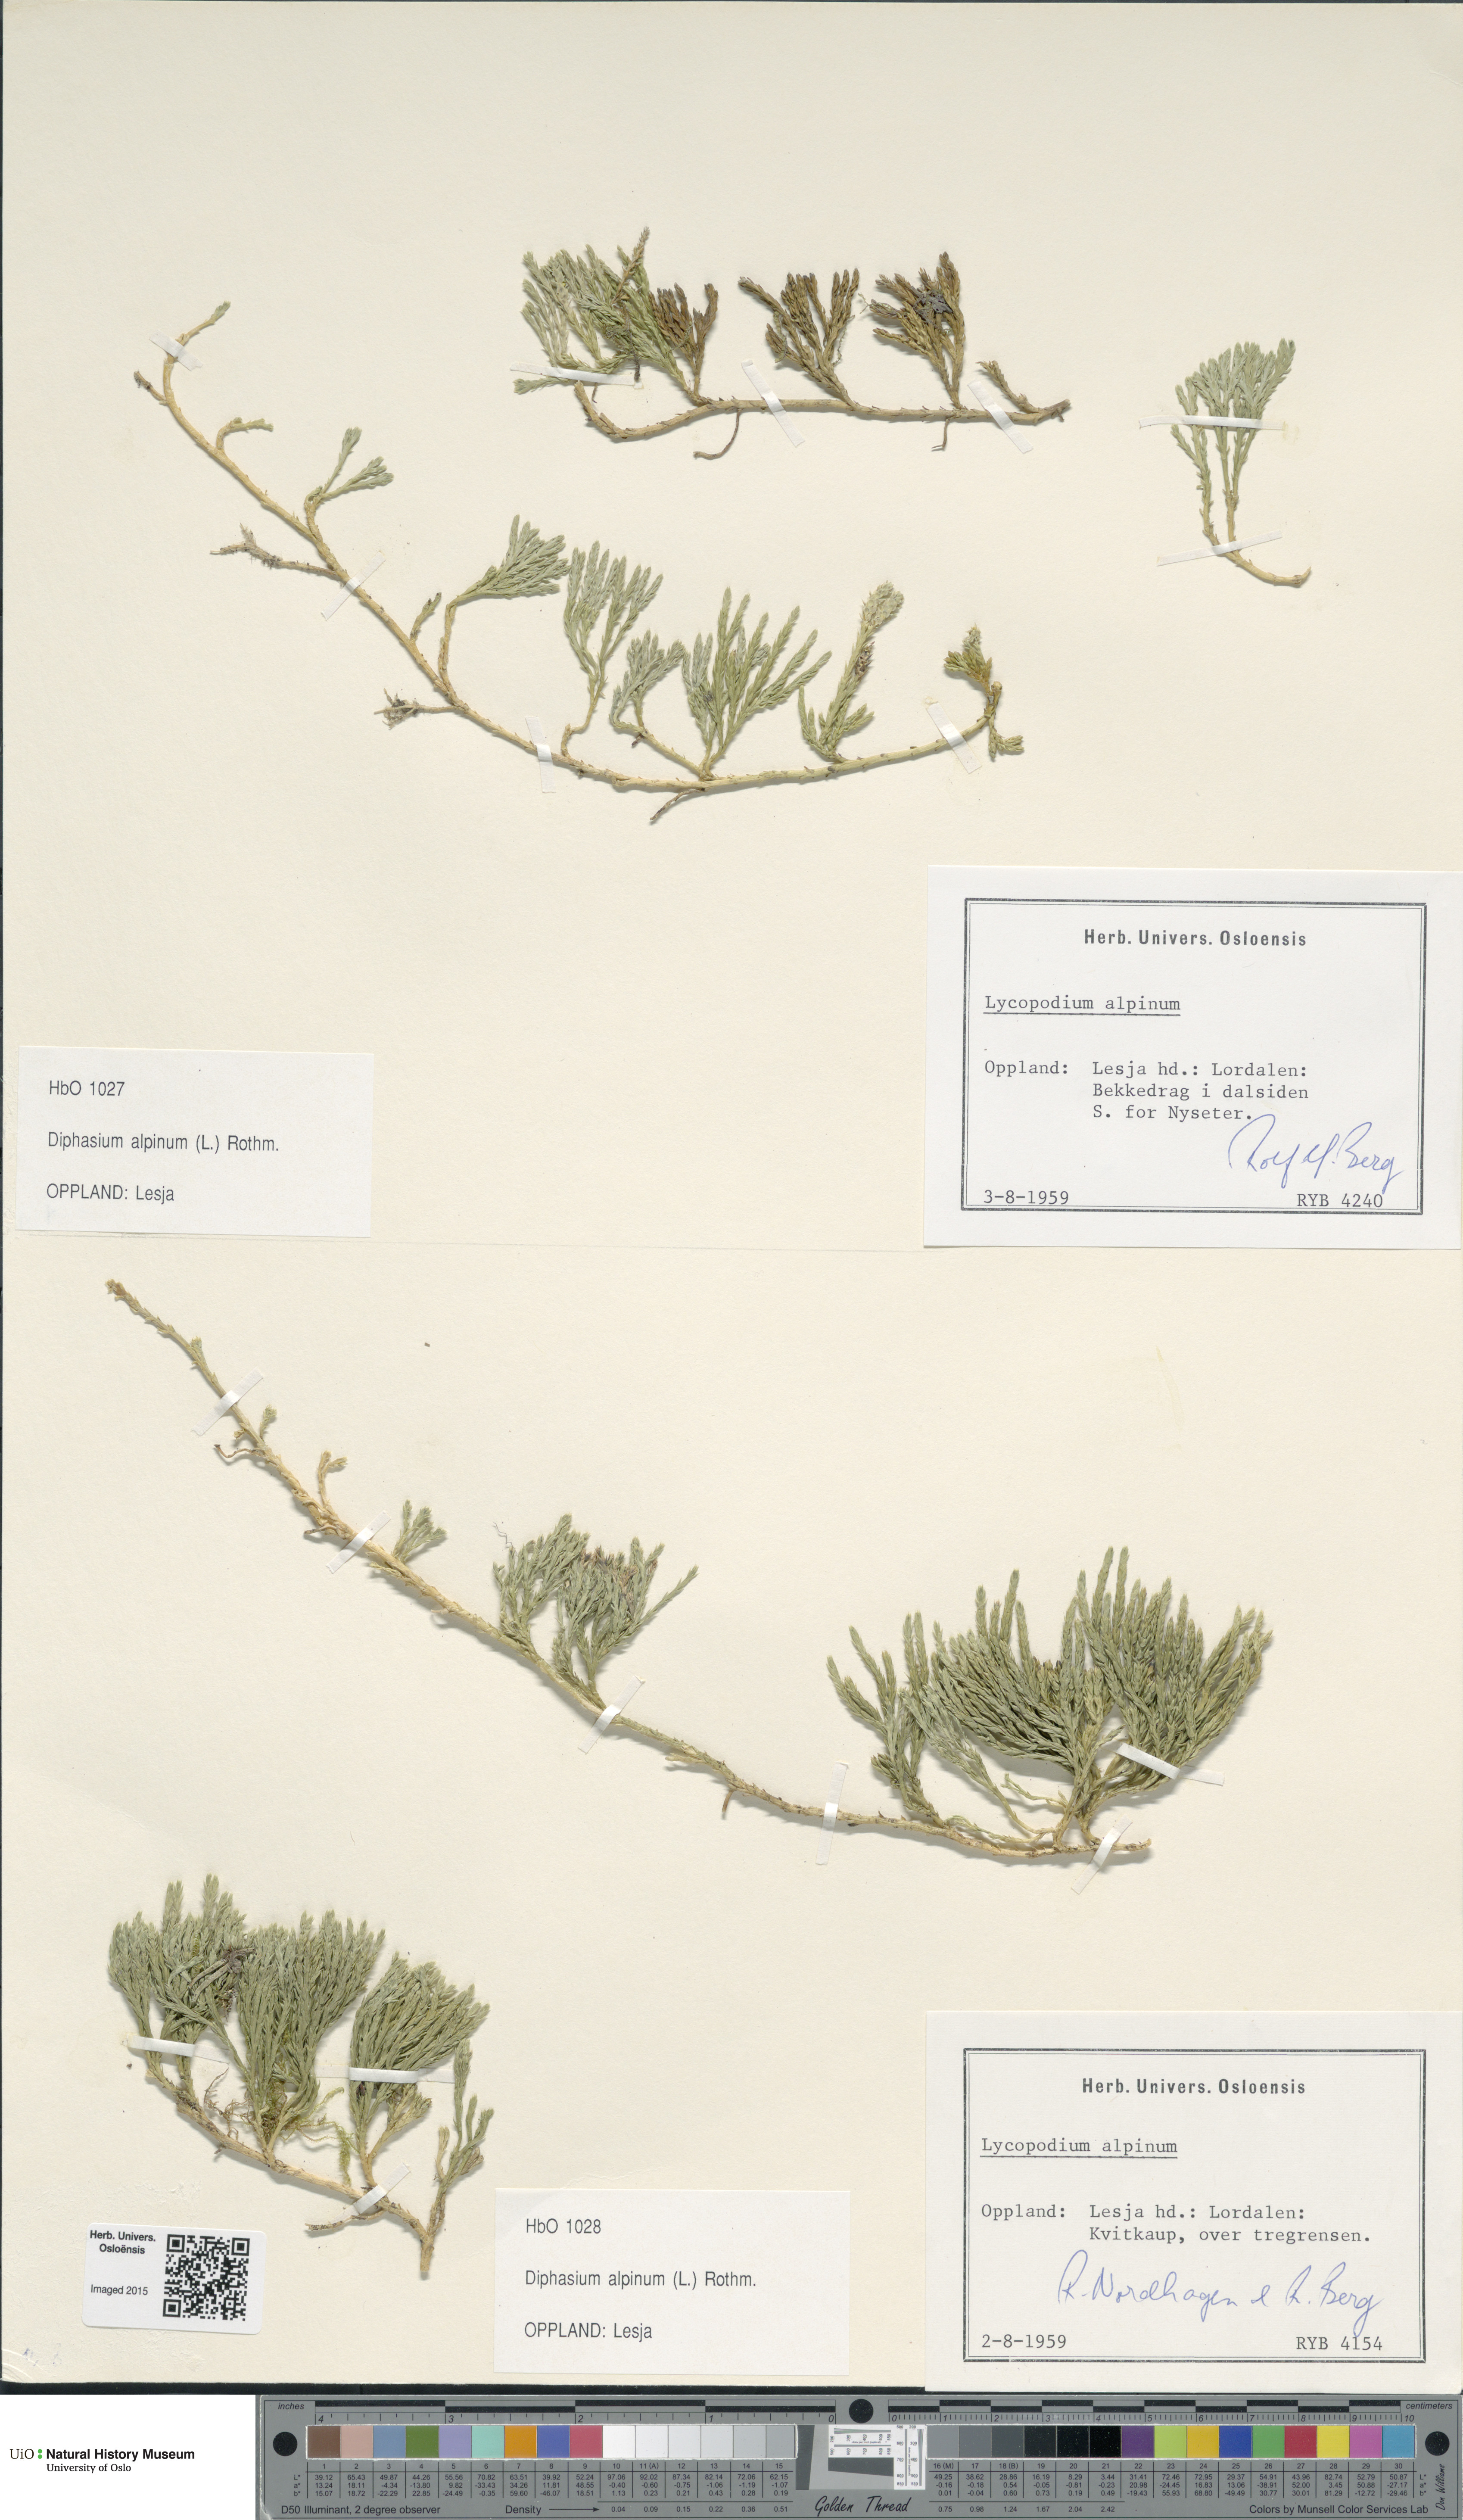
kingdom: Plantae
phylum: Tracheophyta
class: Lycopodiopsida
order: Lycopodiales
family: Lycopodiaceae
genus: Diphasiastrum
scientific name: Diphasiastrum alpinum
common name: Alpine clubmoss
